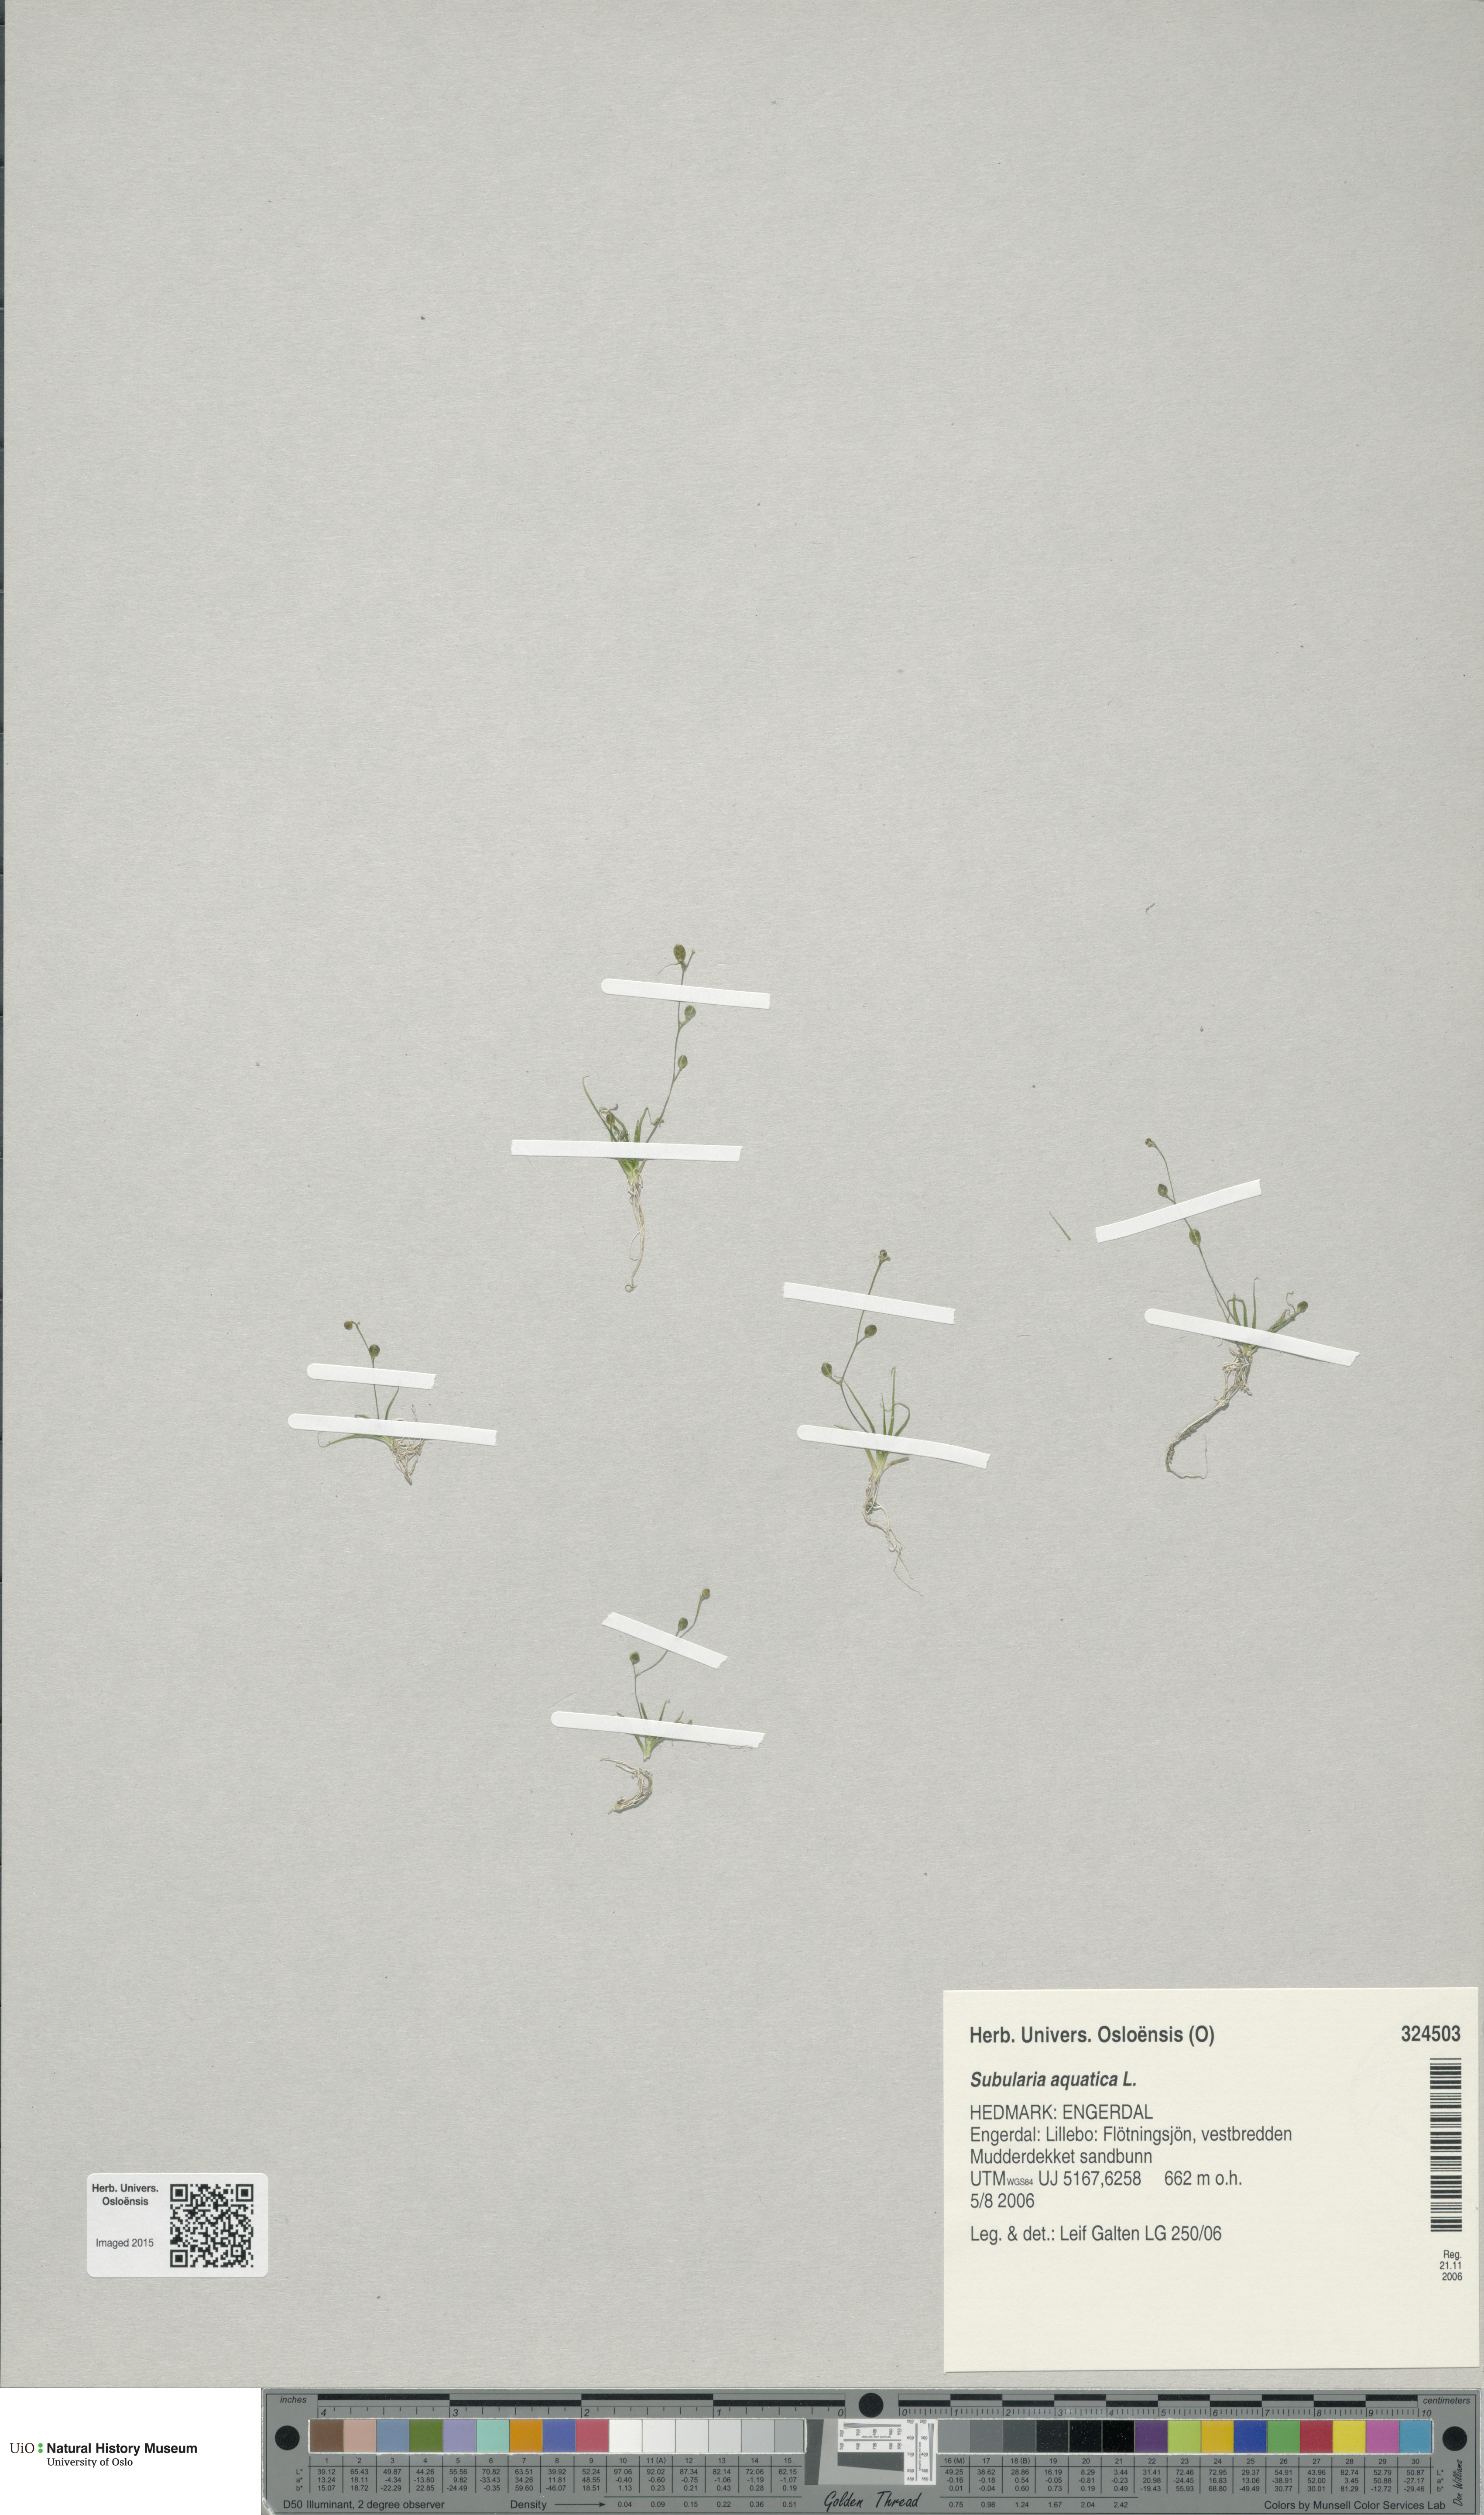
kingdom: Plantae
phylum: Tracheophyta
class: Magnoliopsida
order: Brassicales
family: Brassicaceae
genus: Subularia
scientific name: Subularia aquatica
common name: Awlwort
